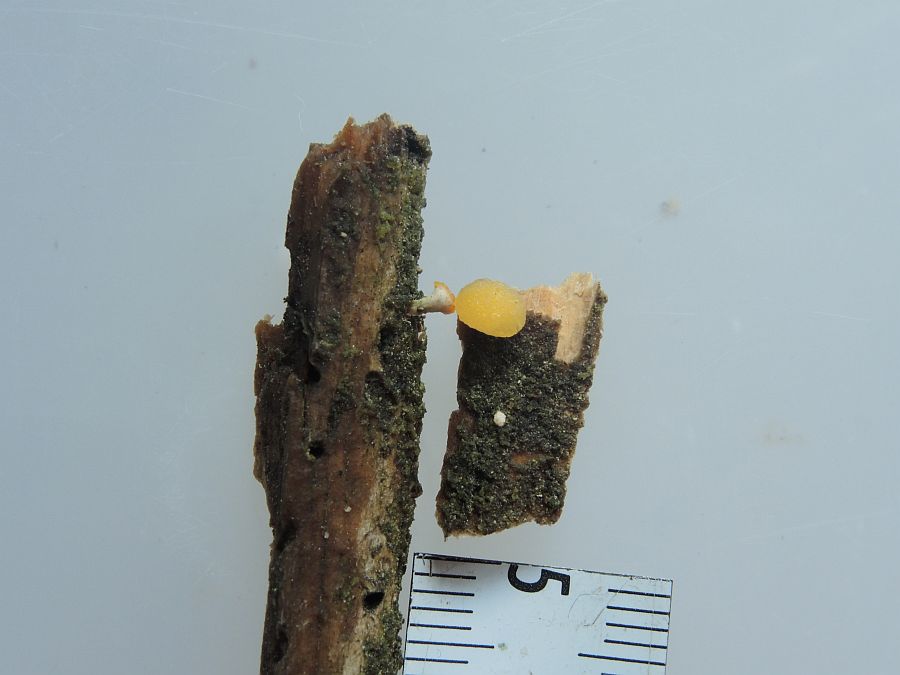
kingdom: Fungi
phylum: Basidiomycota
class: Dacrymycetes
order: Dacrymycetales
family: Dacrymycetaceae
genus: Ditiola
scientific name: Ditiola radicata
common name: rod-tåresvamp
